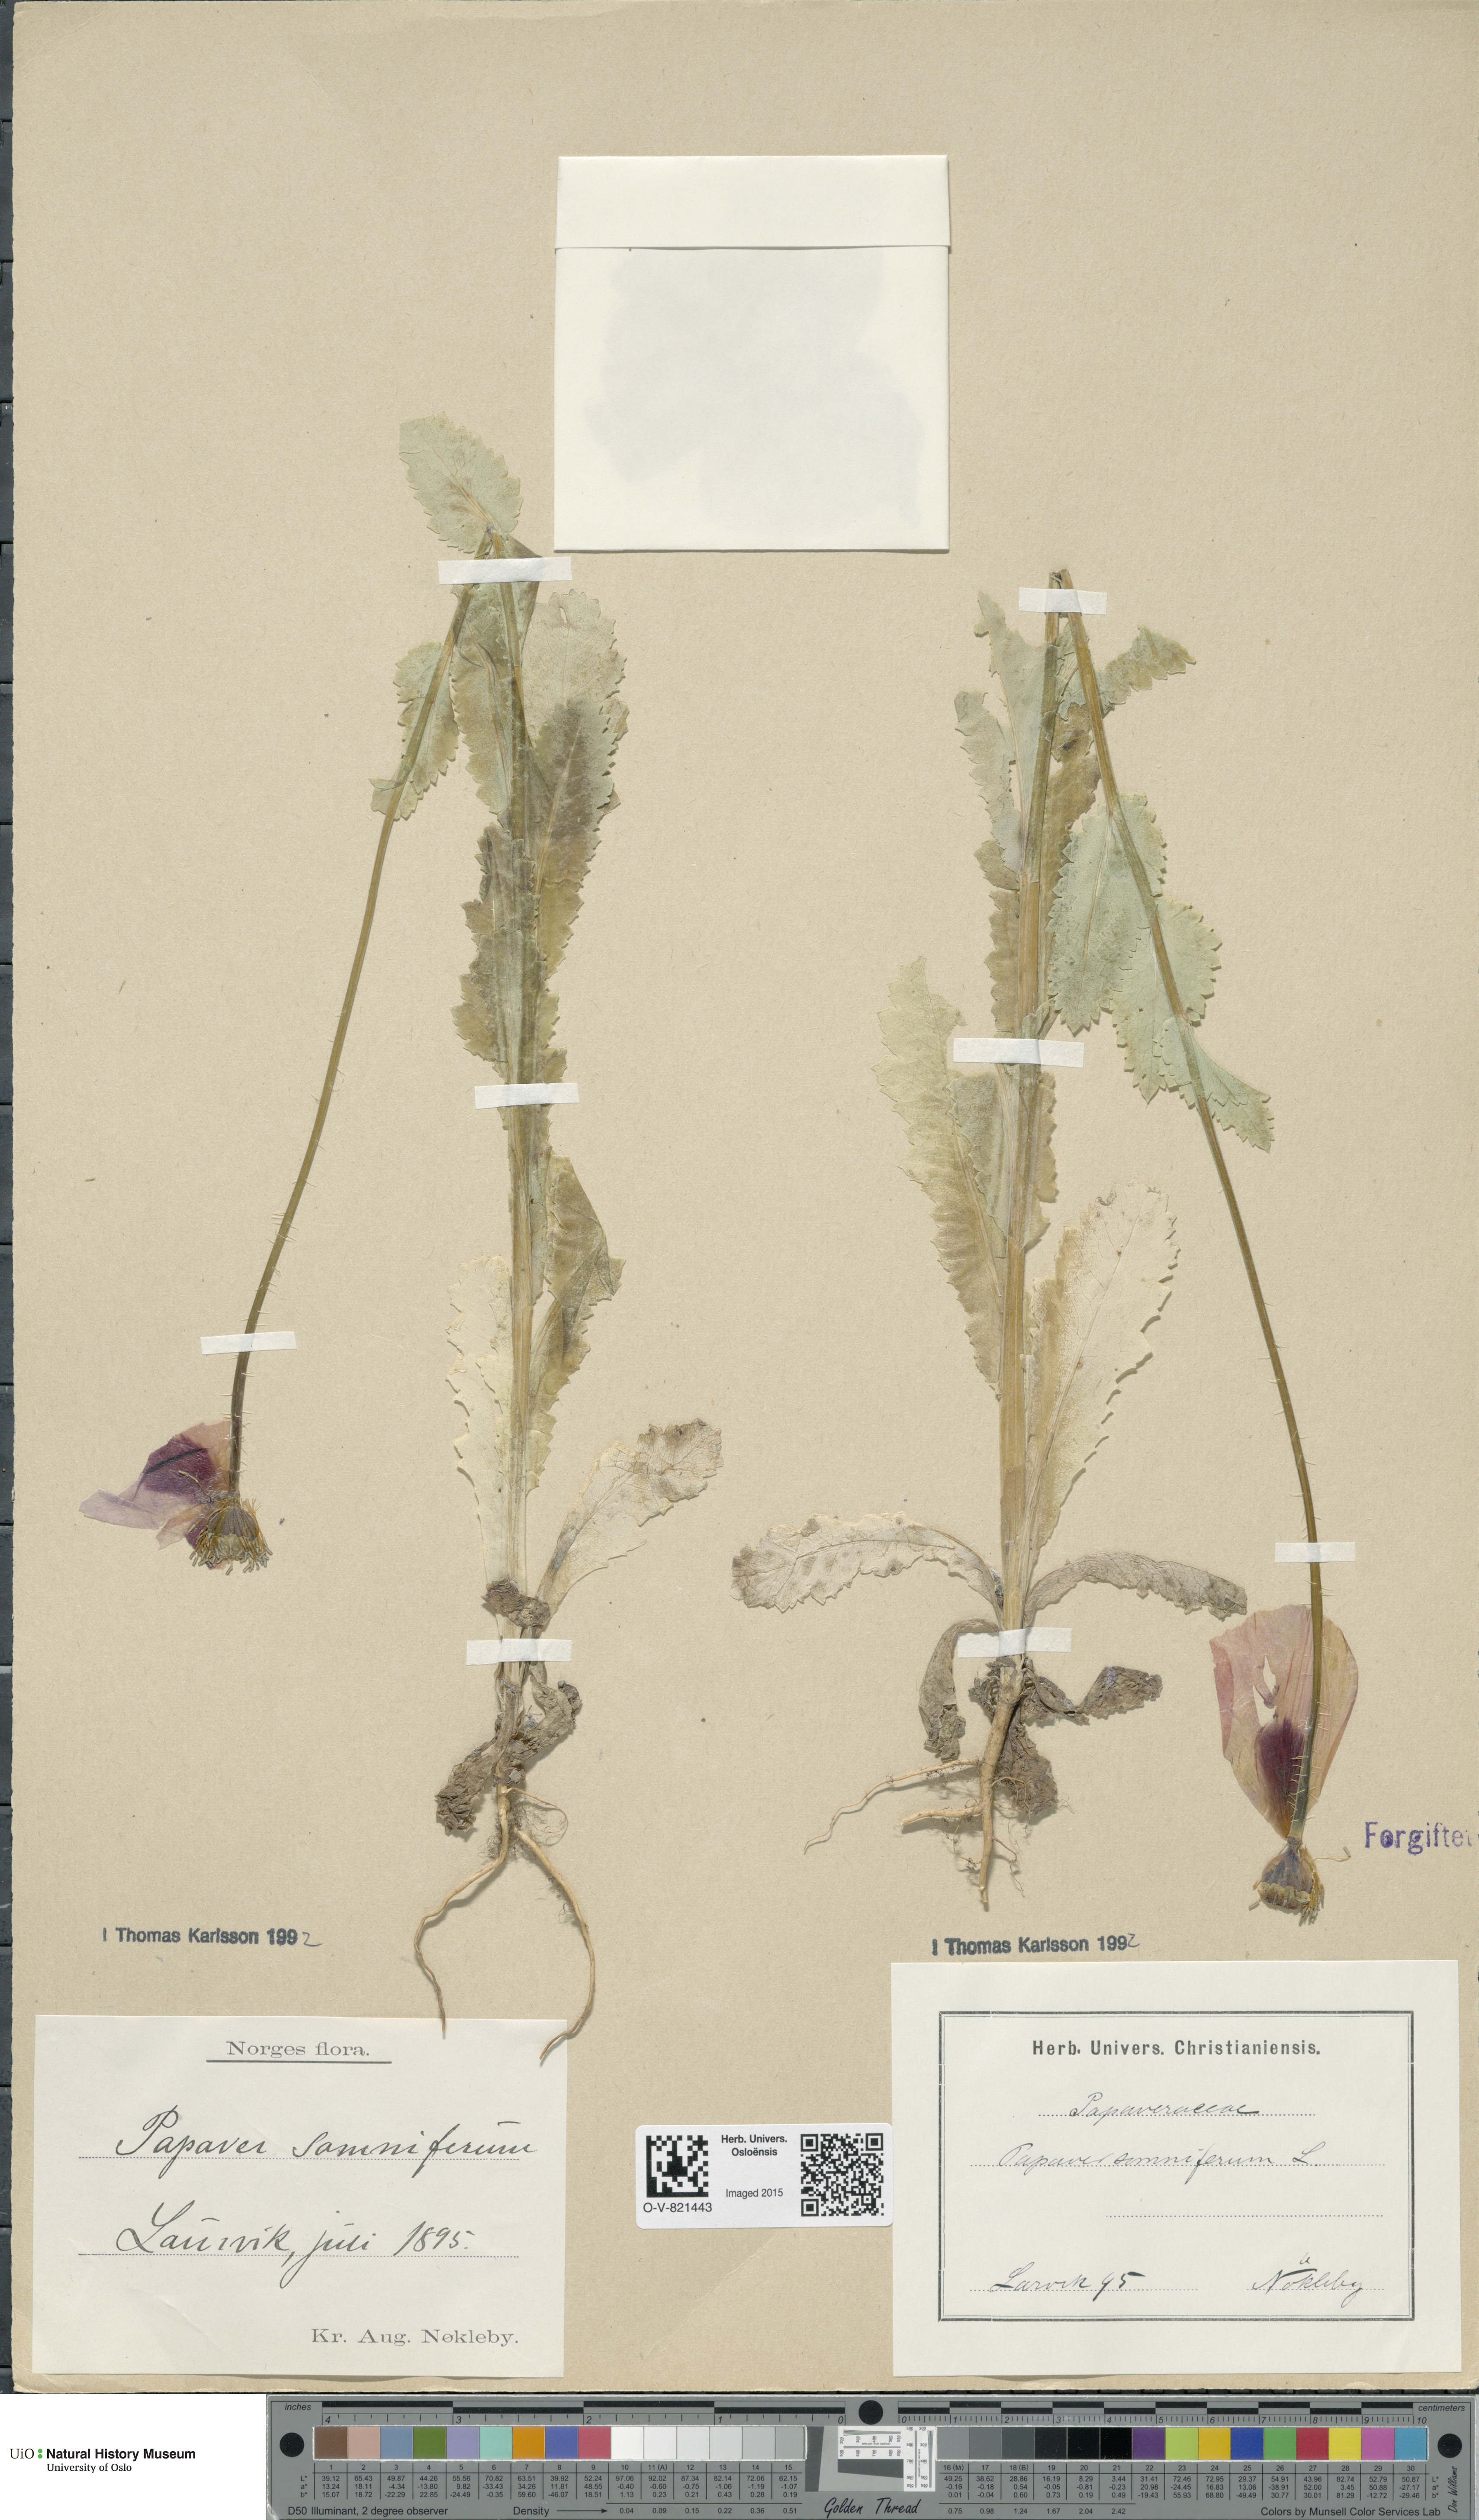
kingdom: Plantae
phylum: Tracheophyta
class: Magnoliopsida
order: Ranunculales
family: Papaveraceae
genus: Papaver
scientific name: Papaver somniferum
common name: Opium poppy
